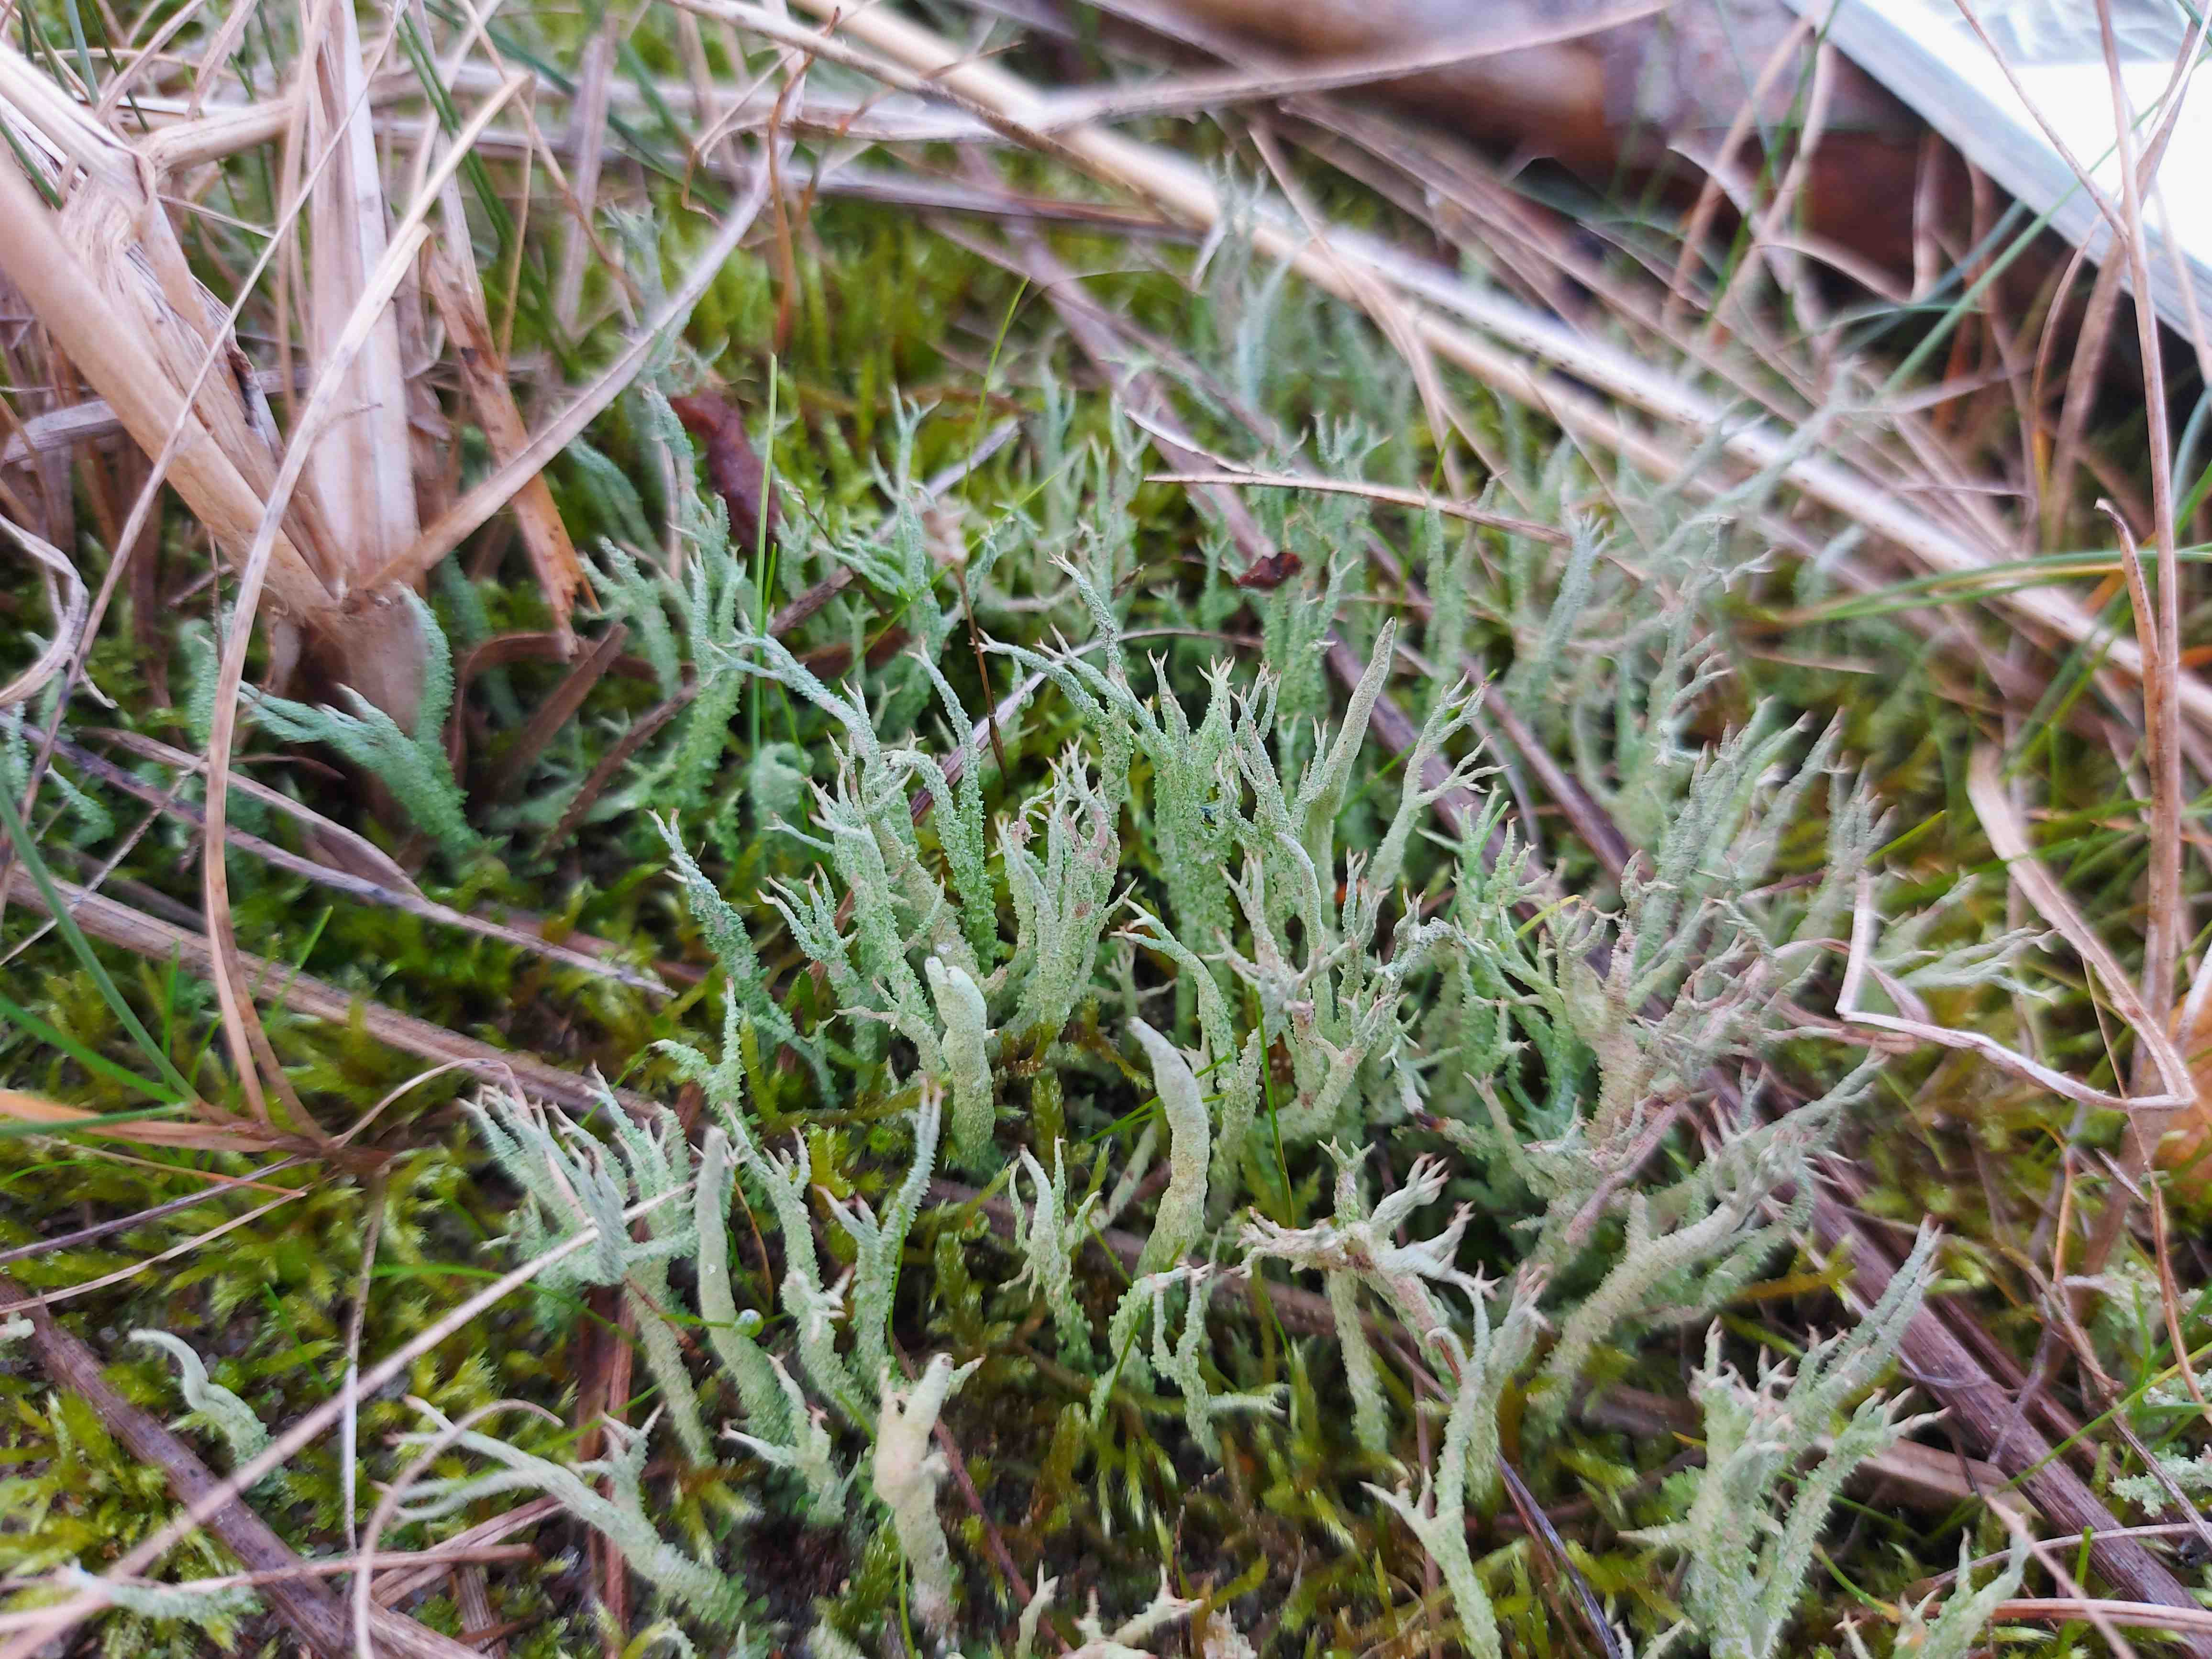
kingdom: Fungi
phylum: Ascomycota
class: Lecanoromycetes
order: Lecanorales
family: Cladoniaceae
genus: Cladonia
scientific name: Cladonia scabriuscula
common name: ru bægerlav
